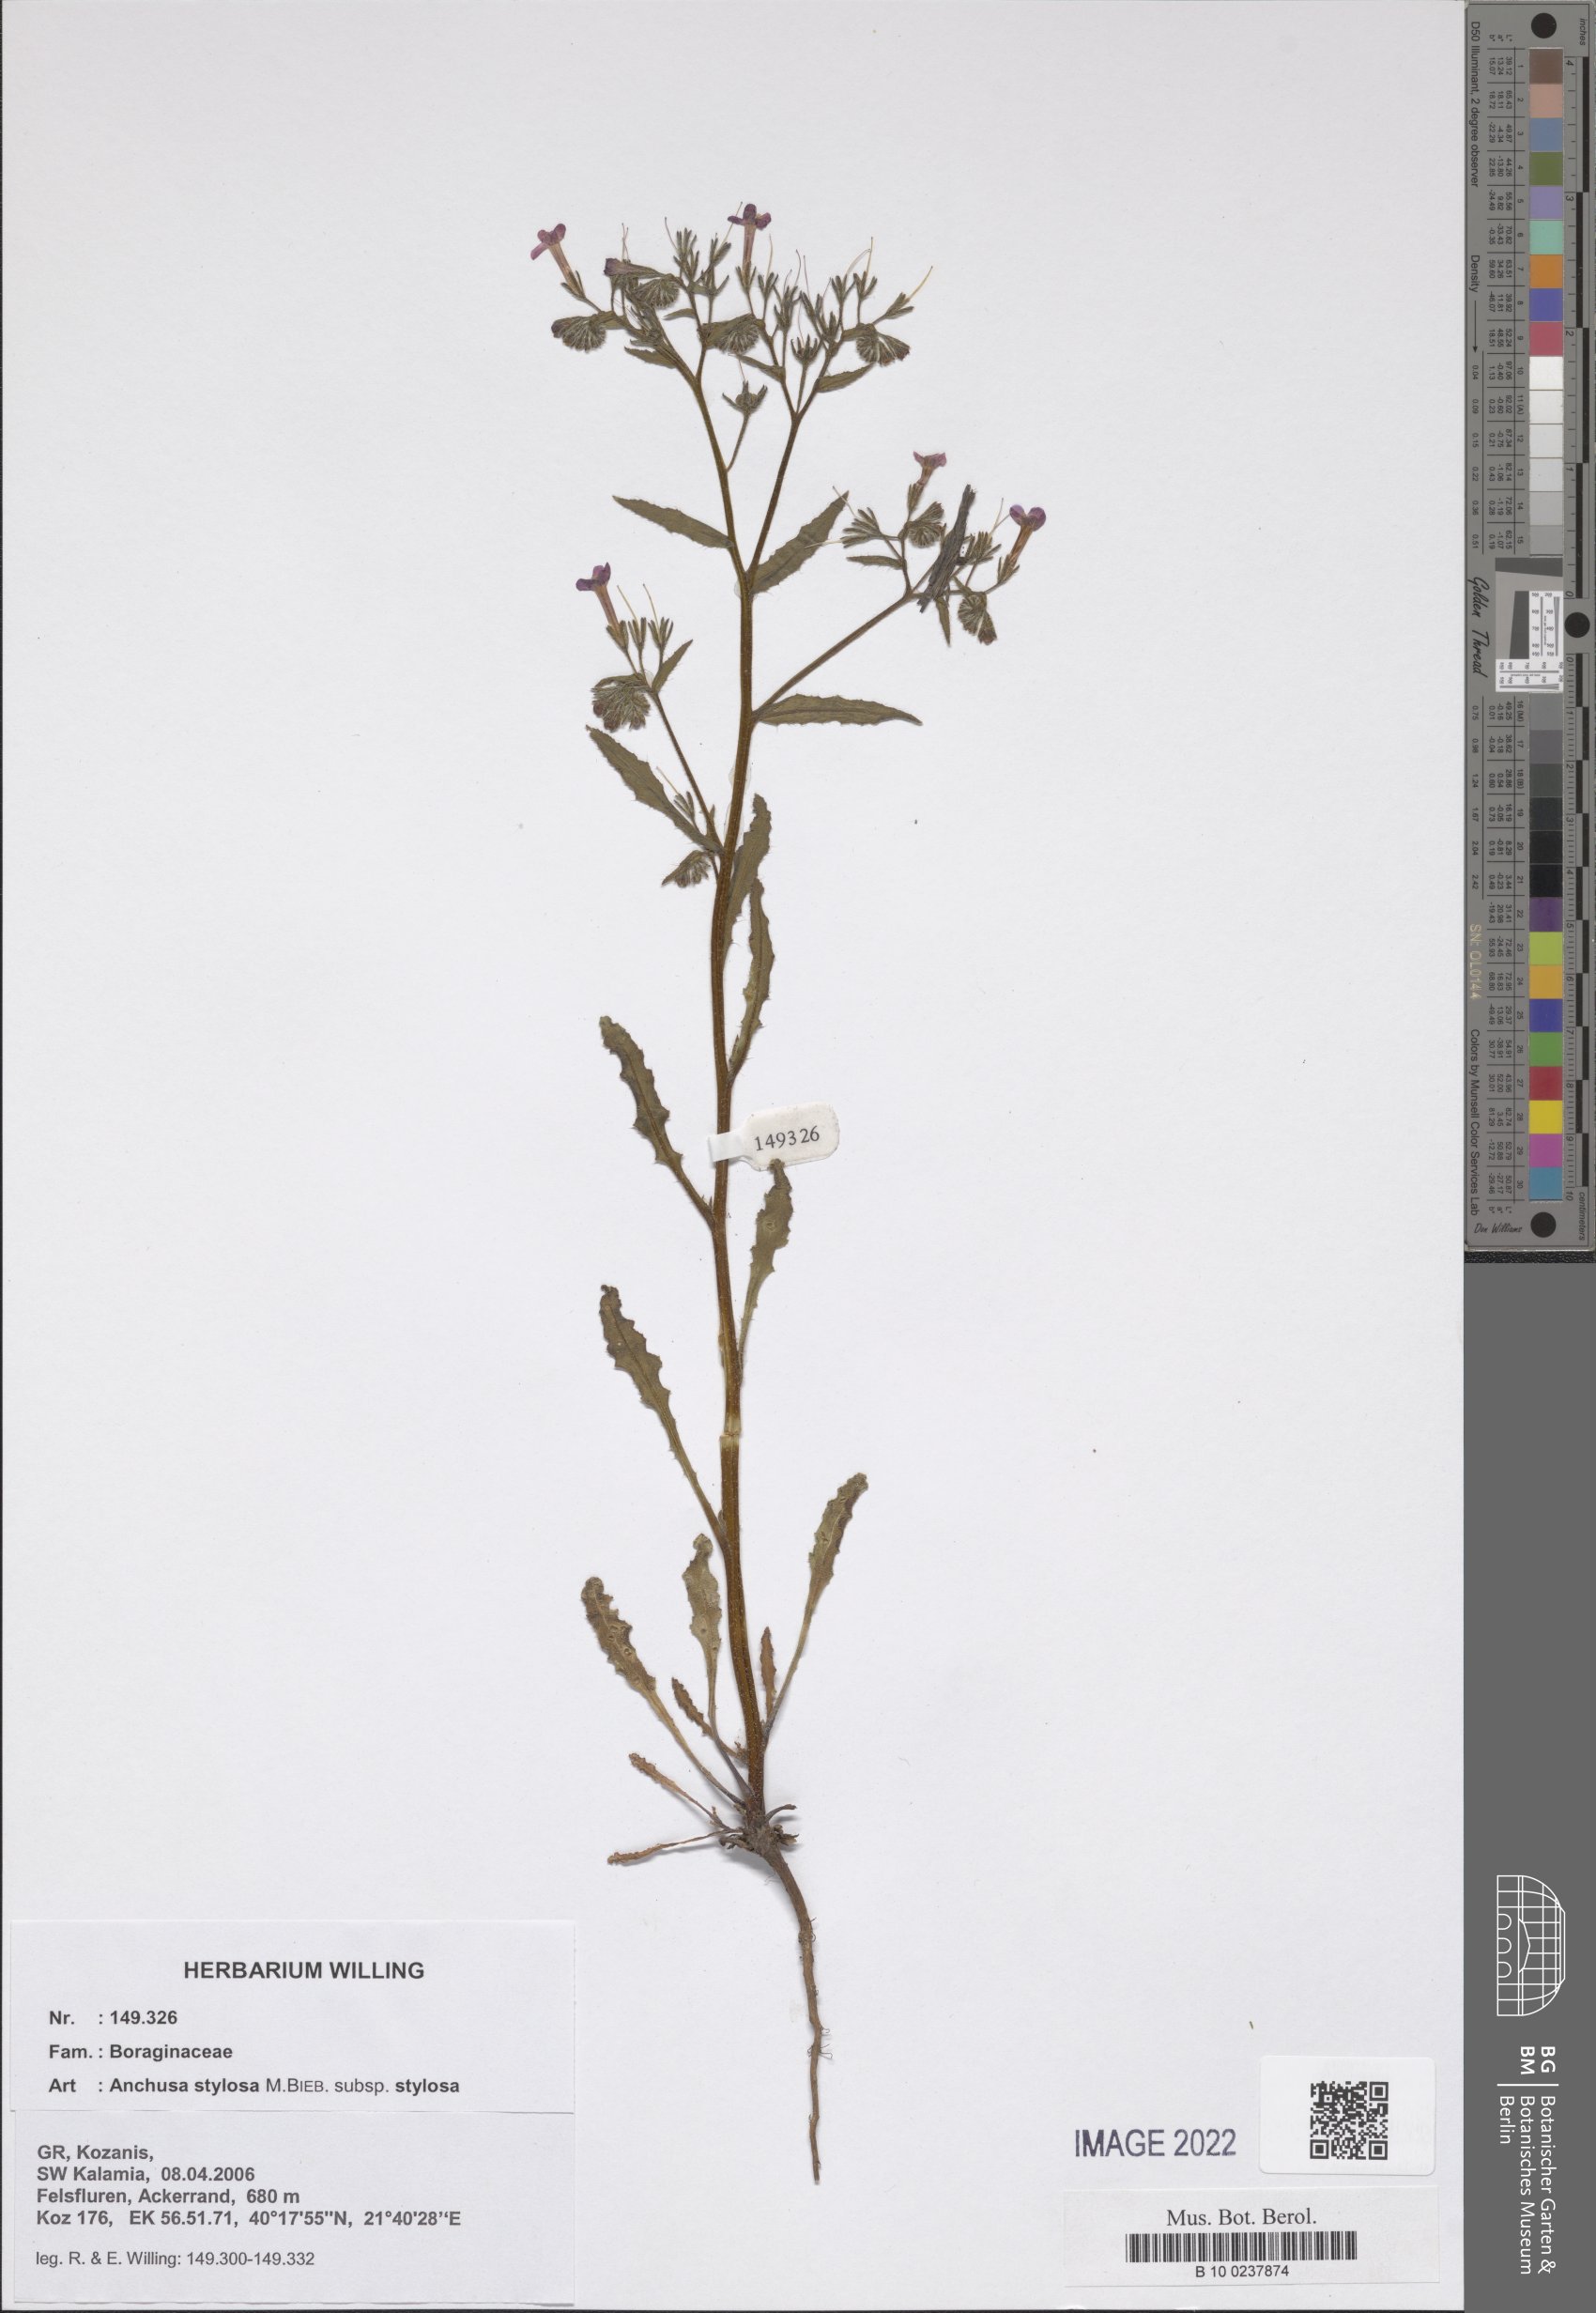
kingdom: Plantae
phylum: Tracheophyta
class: Magnoliopsida
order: Boraginales
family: Boraginaceae
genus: Anchusa
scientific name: Anchusa stylosa
